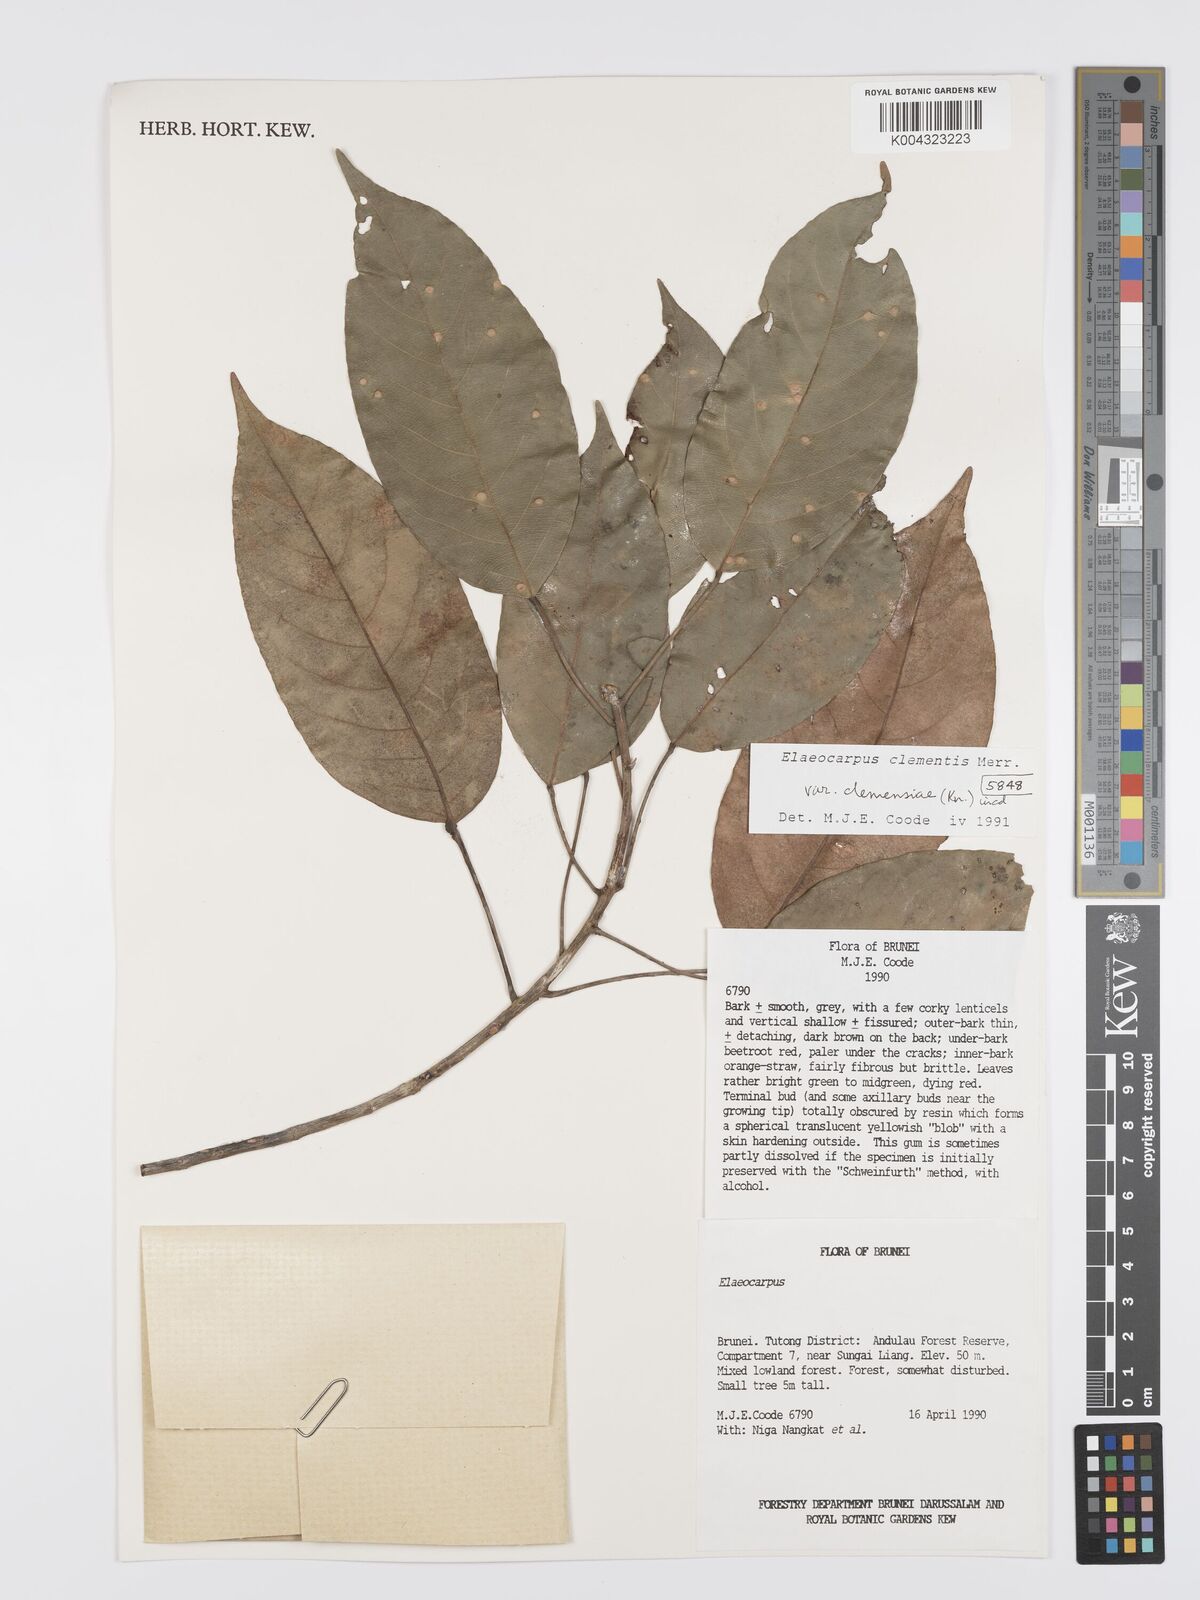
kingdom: Plantae
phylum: Tracheophyta
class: Magnoliopsida
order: Oxalidales
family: Elaeocarpaceae
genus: Elaeocarpus
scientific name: Elaeocarpus clementis
